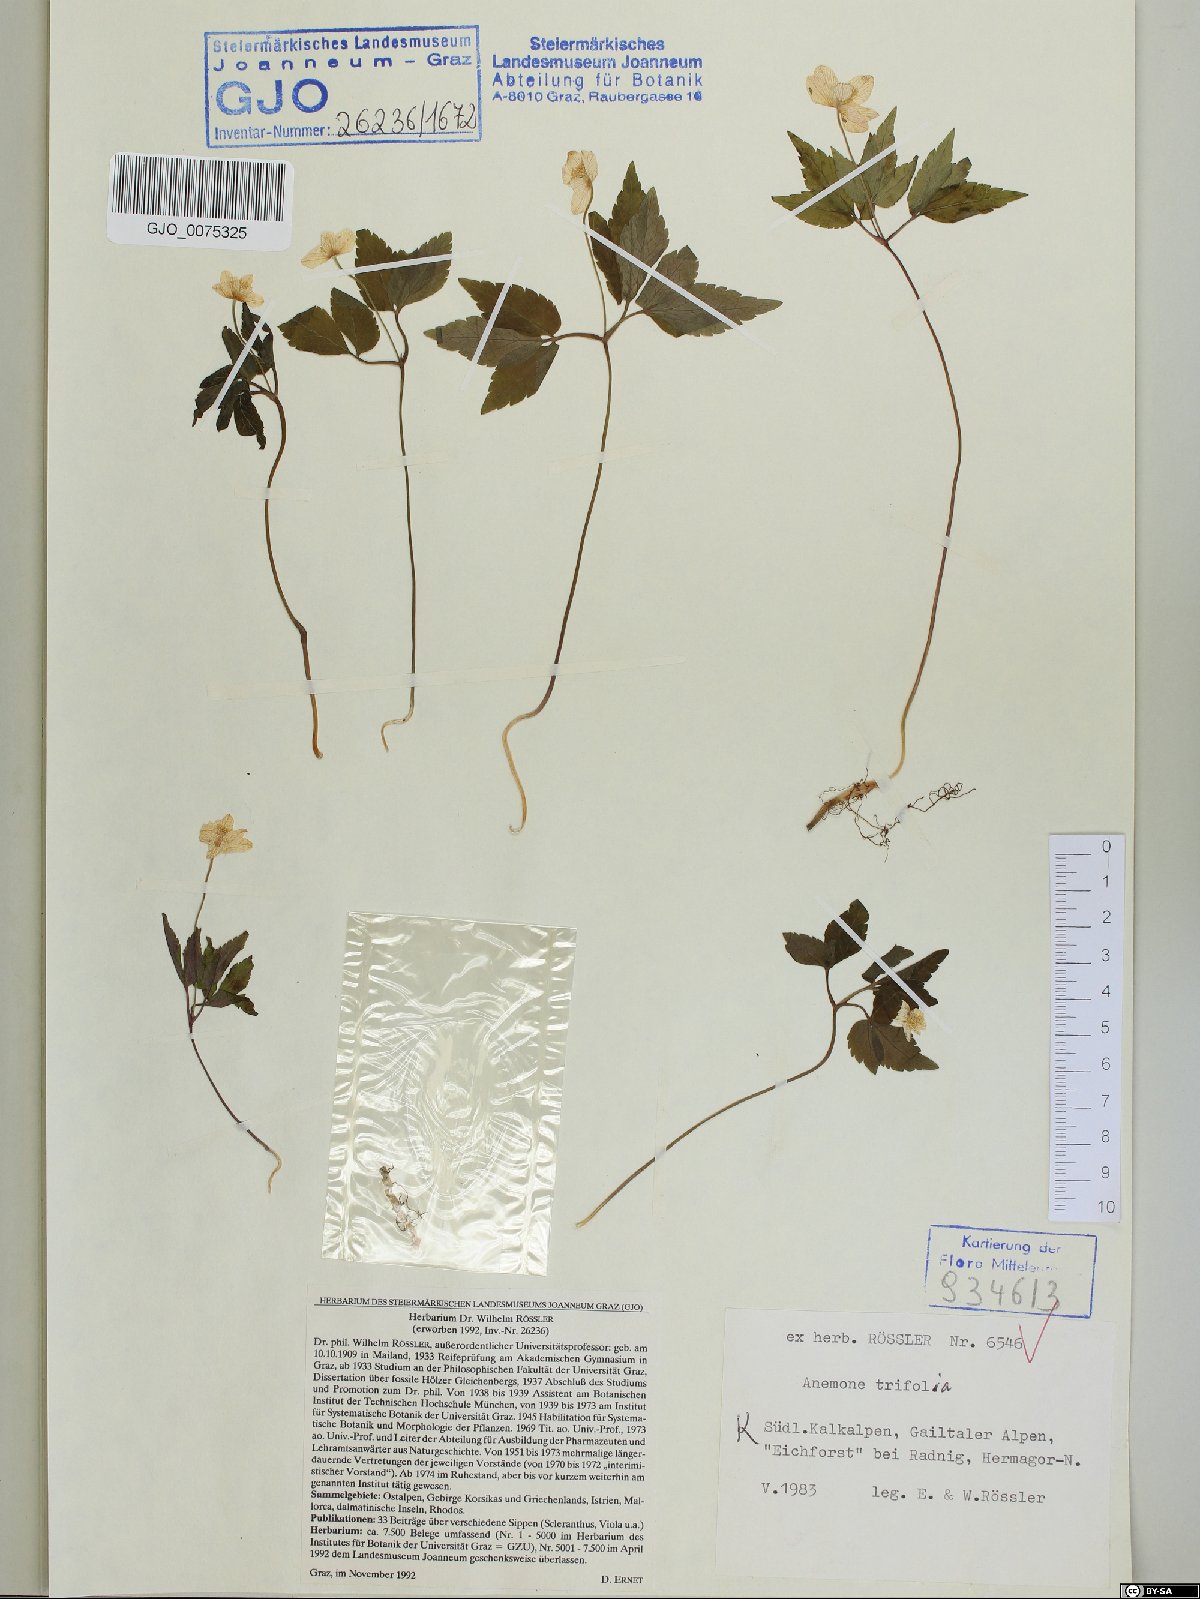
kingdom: Plantae
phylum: Tracheophyta
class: Magnoliopsida
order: Ranunculales
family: Ranunculaceae
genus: Anemone
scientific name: Anemone trifolia
